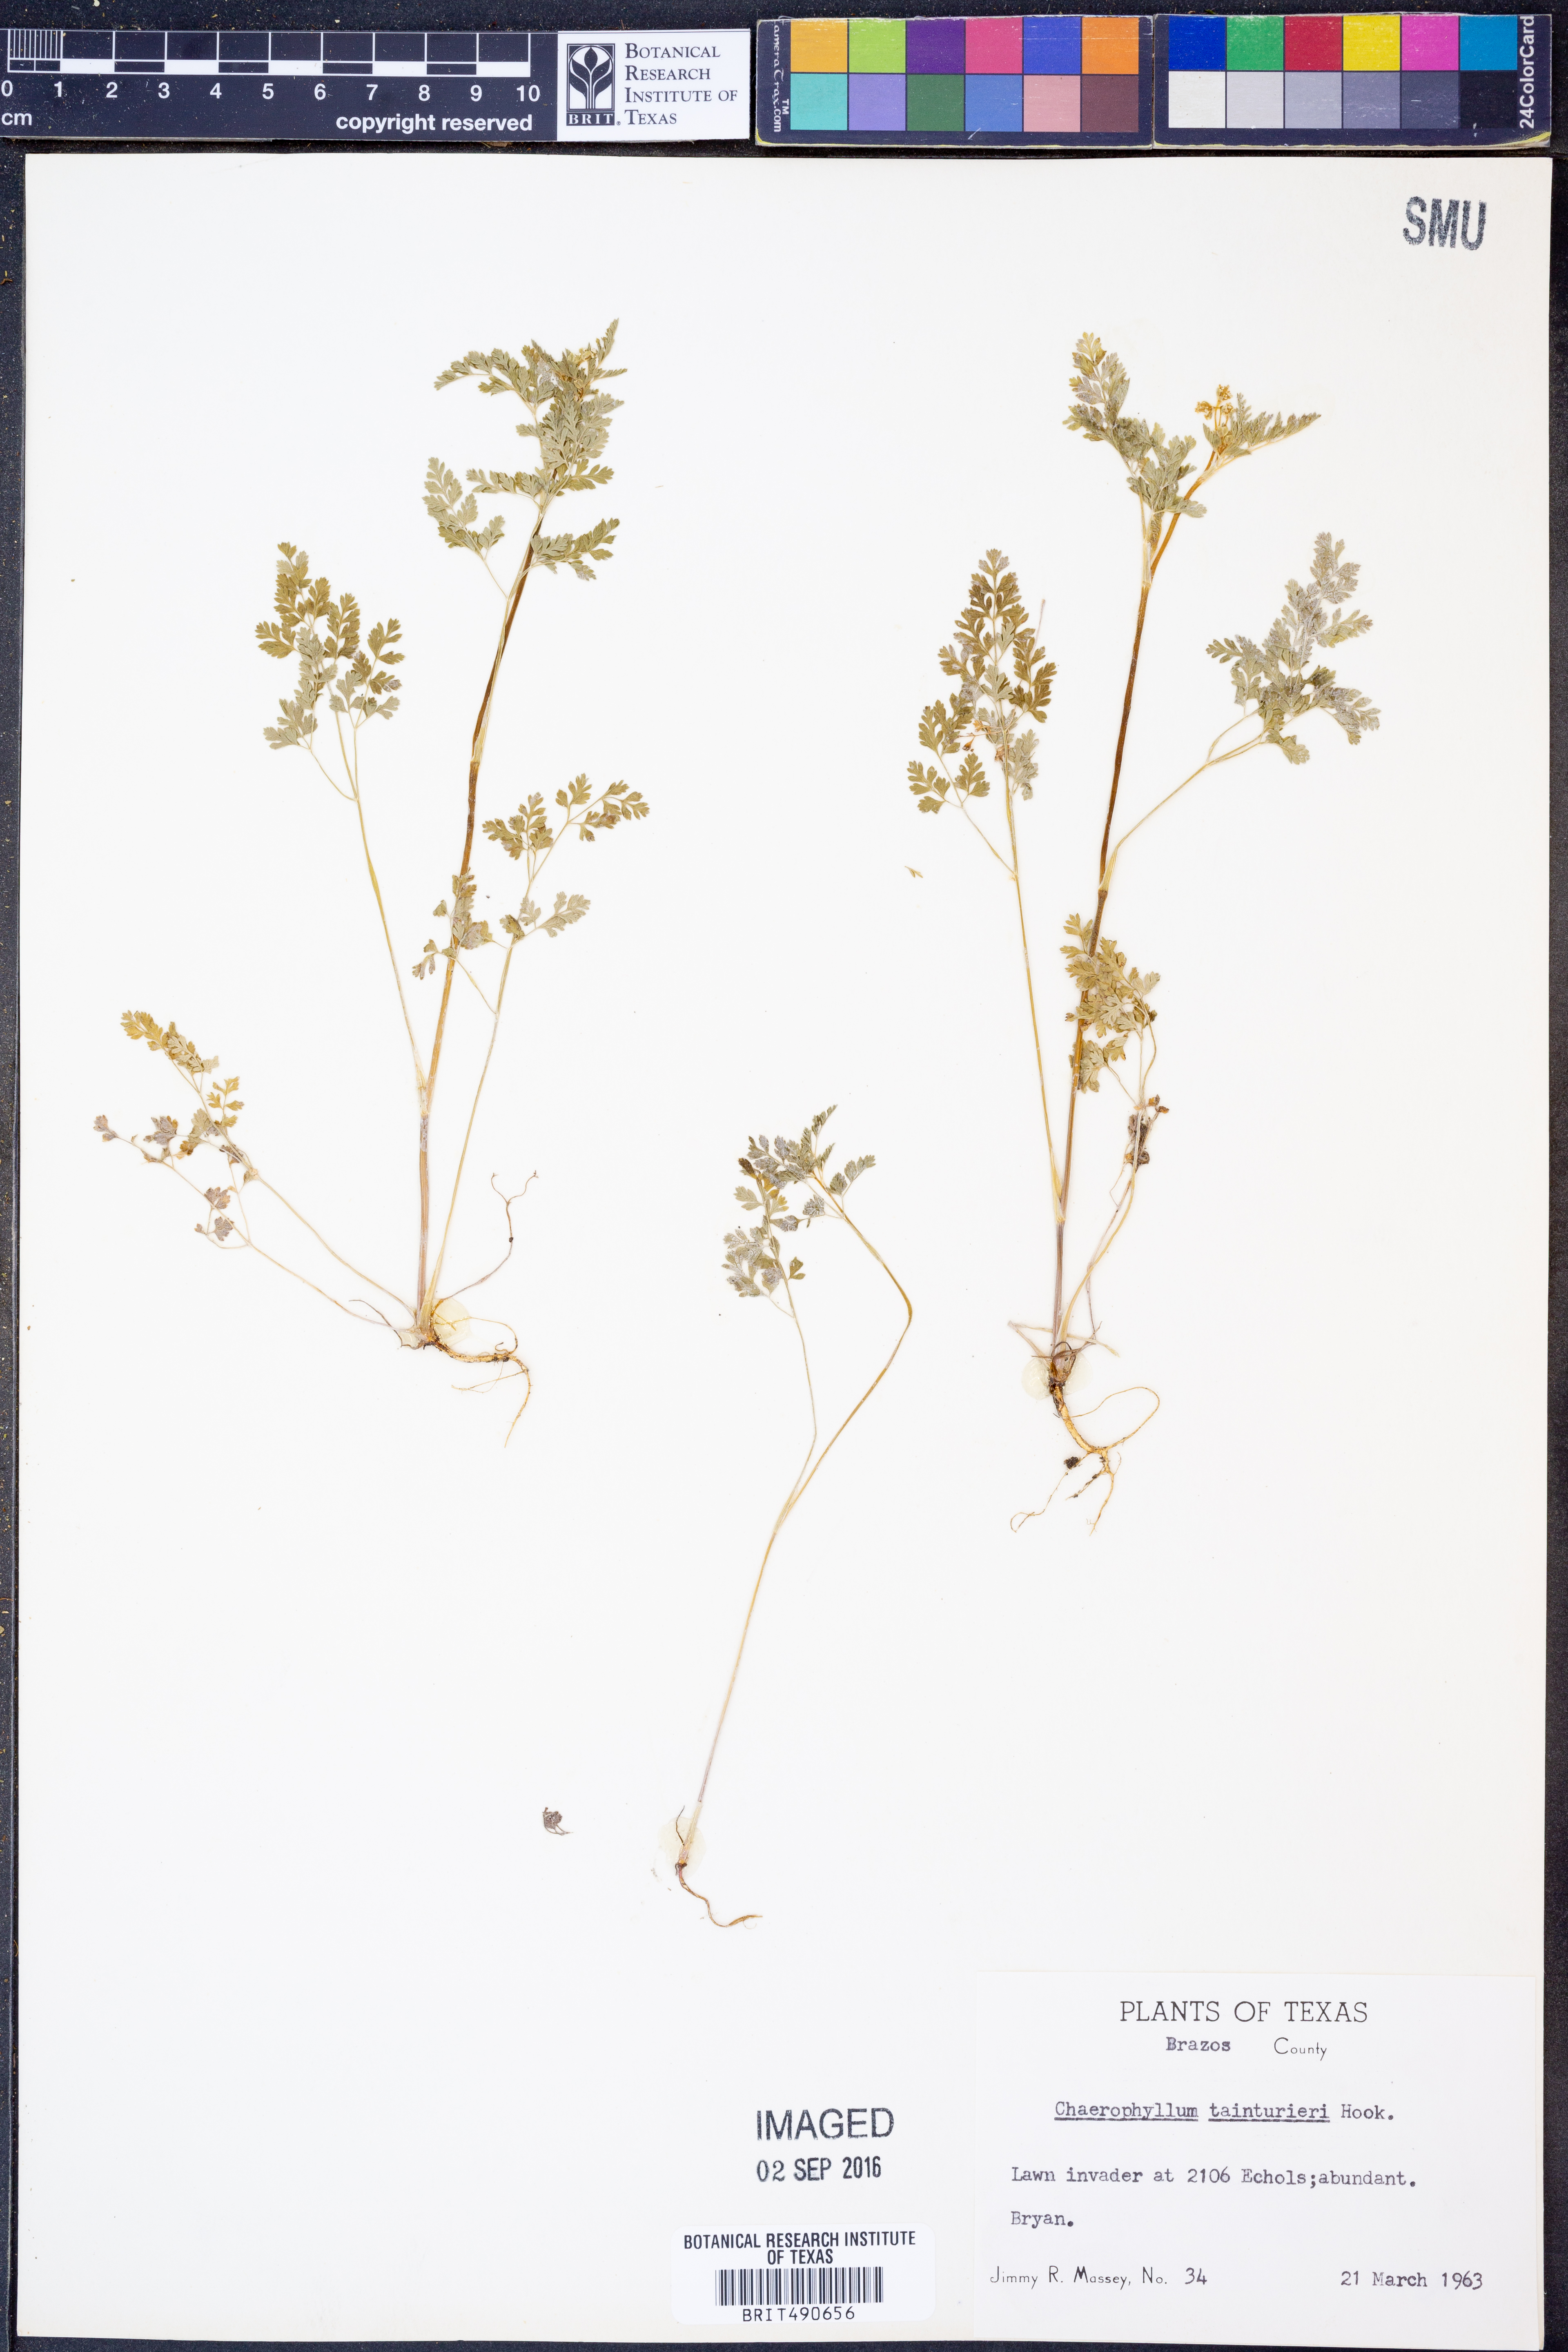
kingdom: Plantae
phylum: Tracheophyta
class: Magnoliopsida
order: Apiales
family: Apiaceae
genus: Chaerophyllum
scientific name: Chaerophyllum tainturieri
